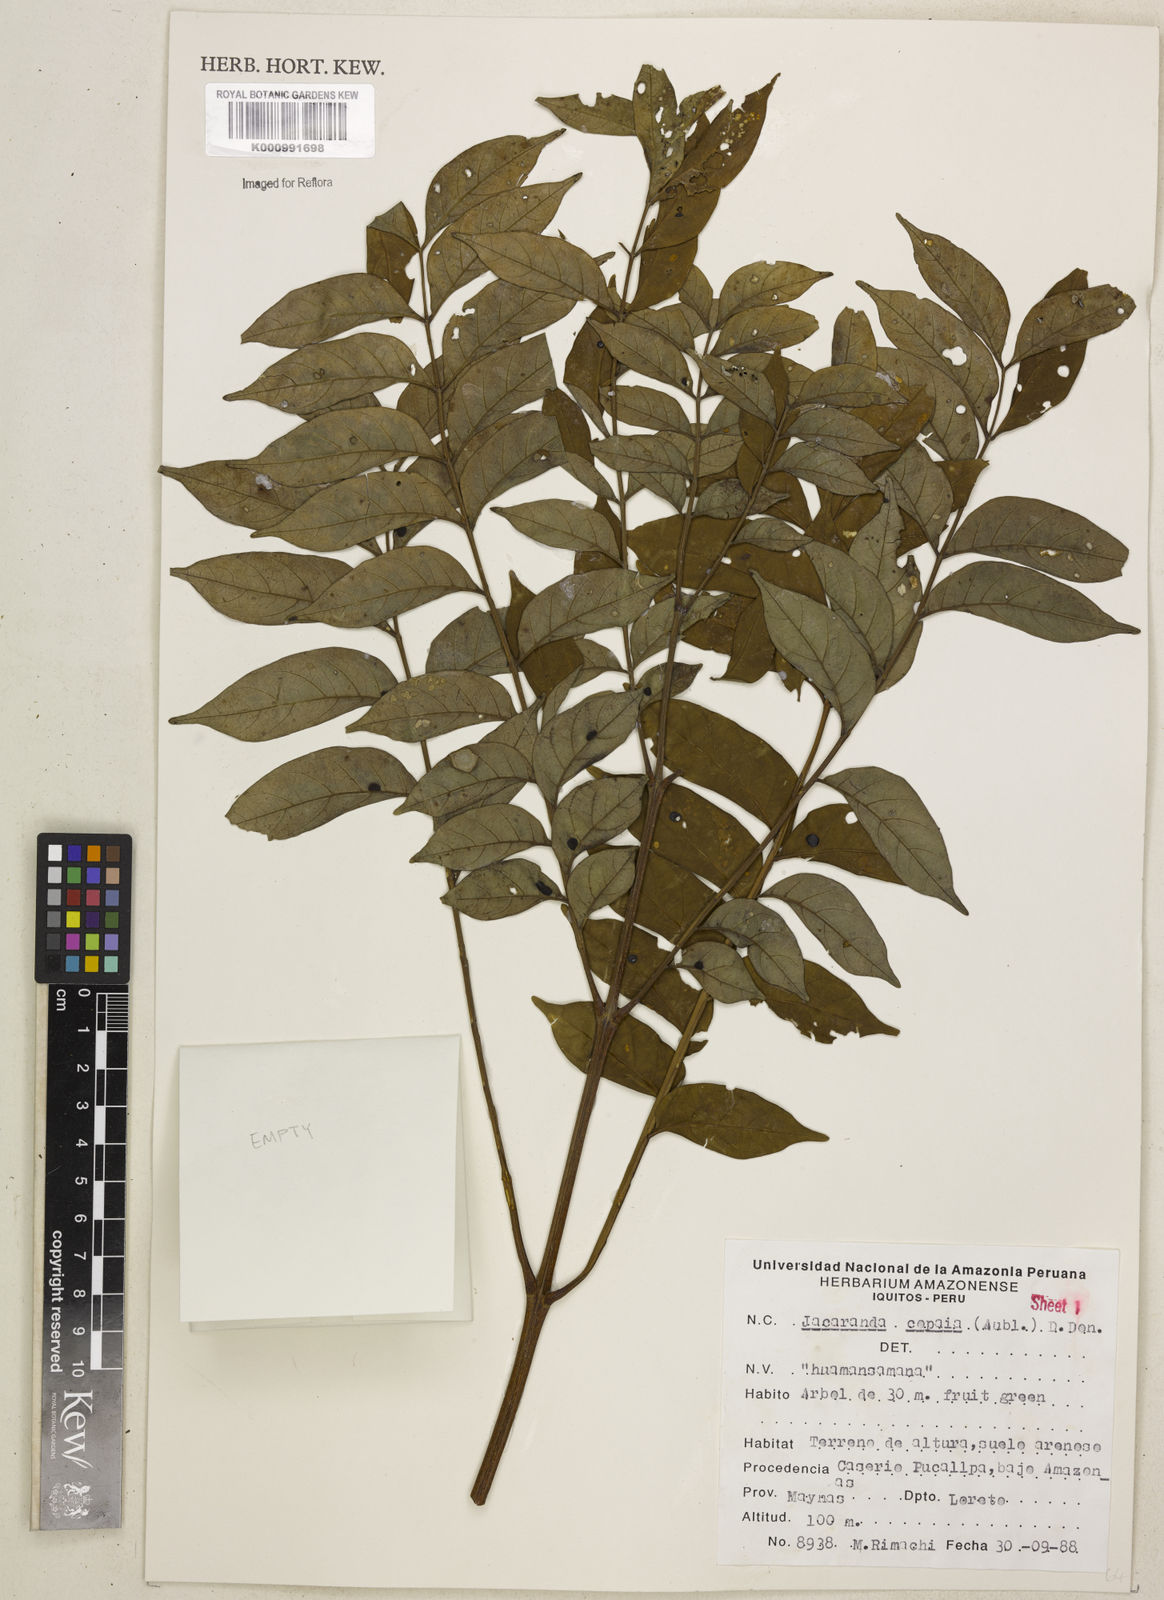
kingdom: Plantae
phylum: Tracheophyta
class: Magnoliopsida
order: Lamiales
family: Bignoniaceae
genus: Jacaranda
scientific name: Jacaranda copaia
